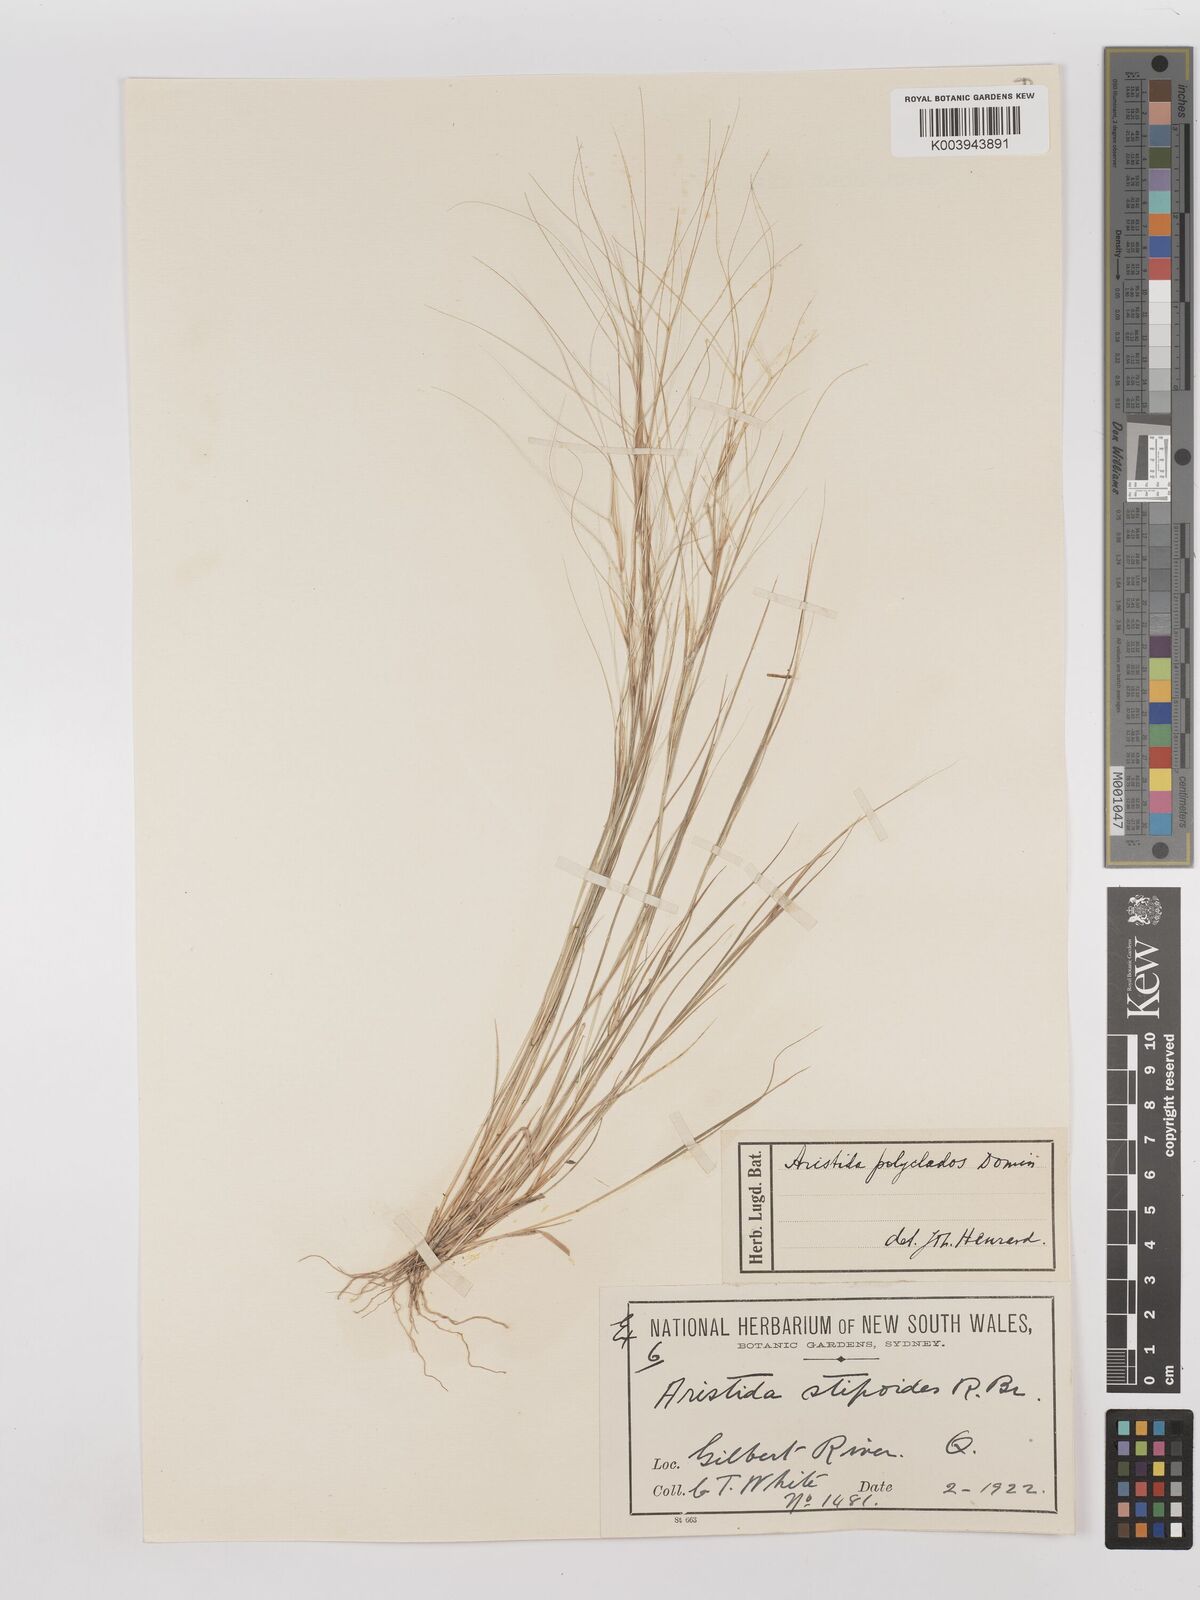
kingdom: Plantae
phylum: Tracheophyta
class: Liliopsida
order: Poales
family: Poaceae
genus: Aristida
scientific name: Aristida polyclados
